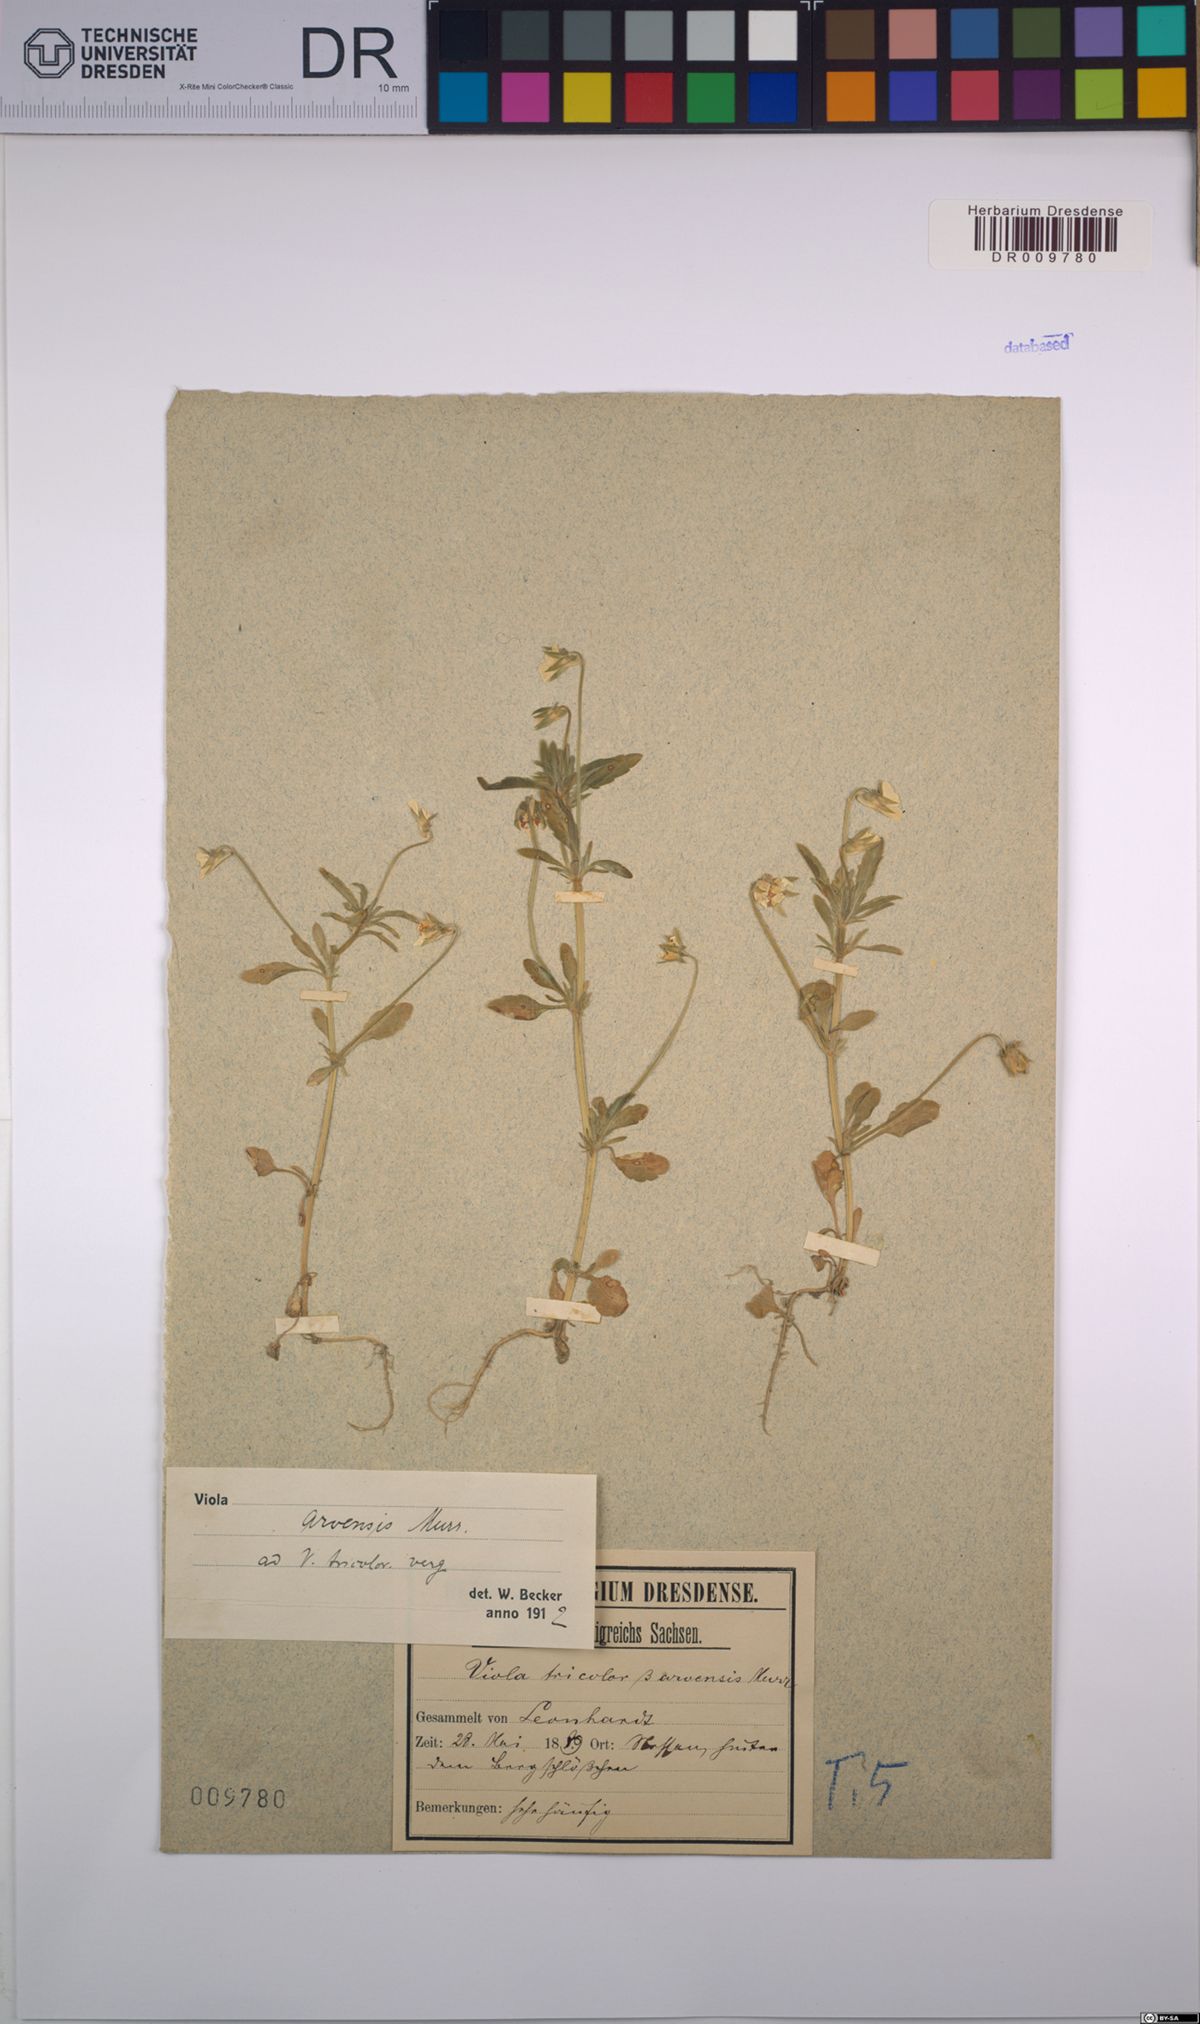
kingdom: Plantae
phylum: Tracheophyta
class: Magnoliopsida
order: Malpighiales
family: Violaceae
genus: Viola
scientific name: Viola arvensis
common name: Field pansy
